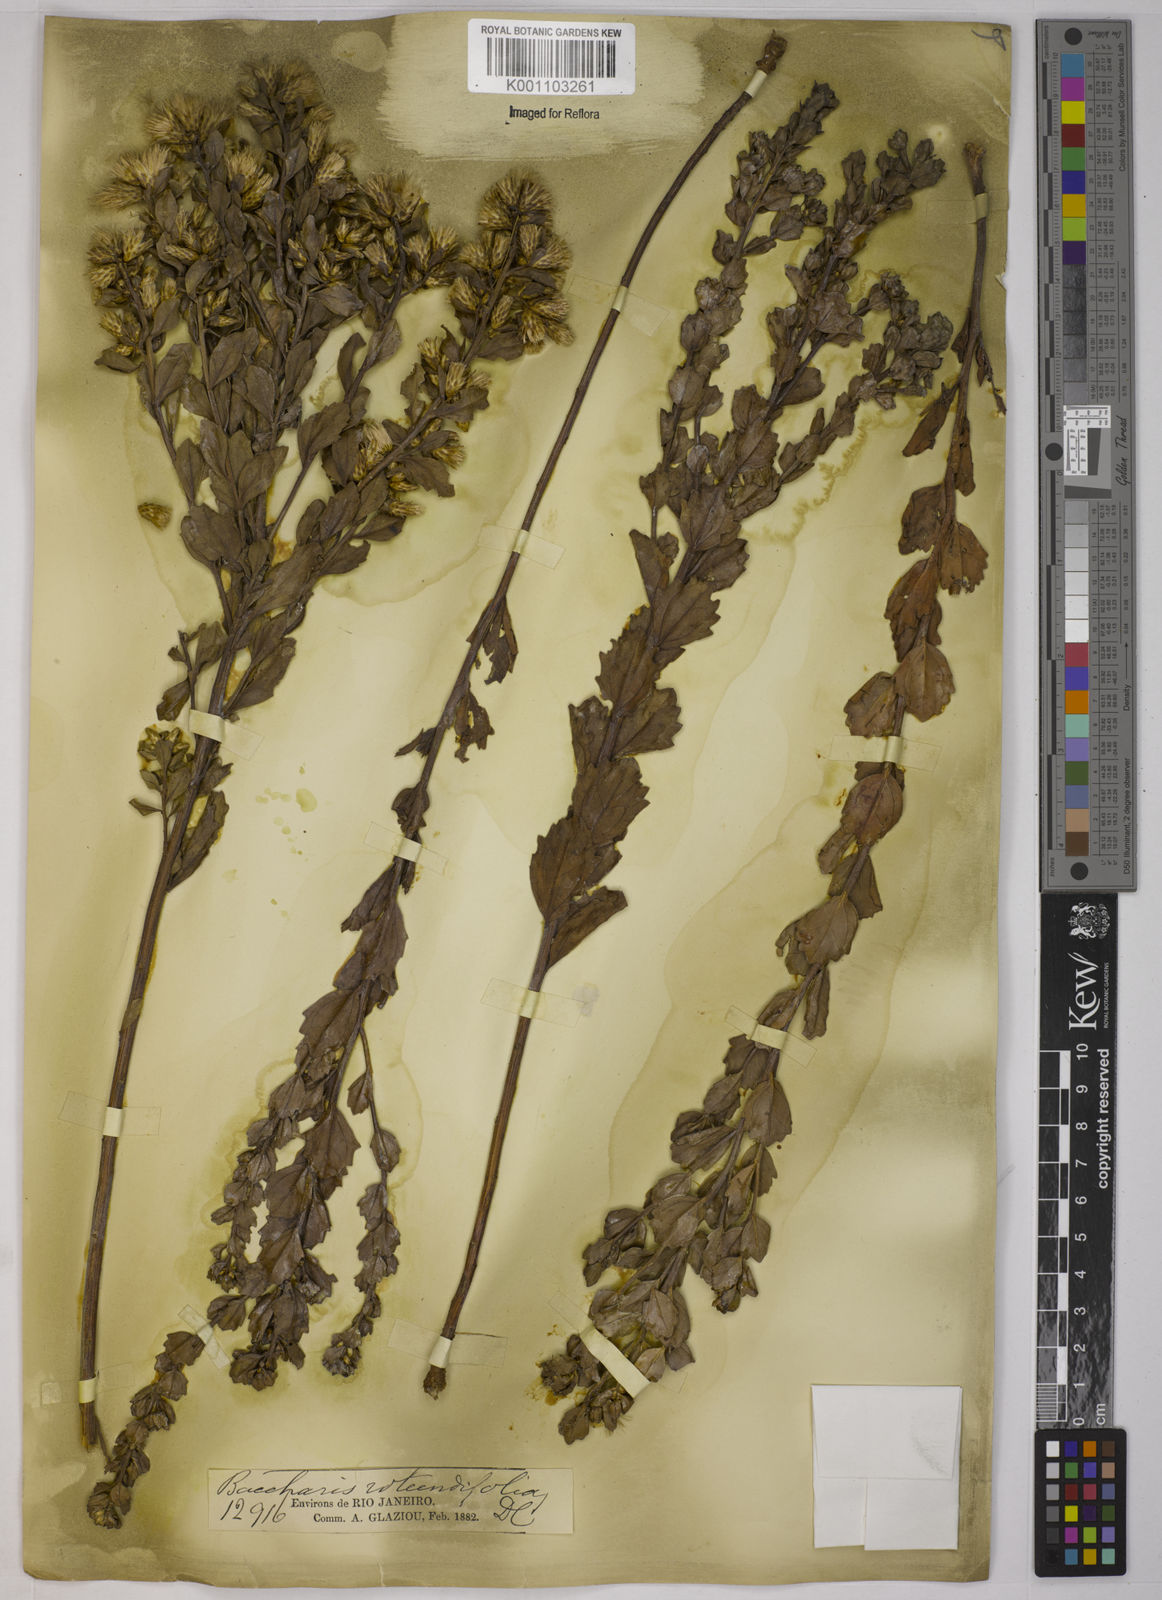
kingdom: Plantae
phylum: Tracheophyta
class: Magnoliopsida
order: Asterales
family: Asteraceae
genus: Baccharis
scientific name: Baccharis sessiliflora
